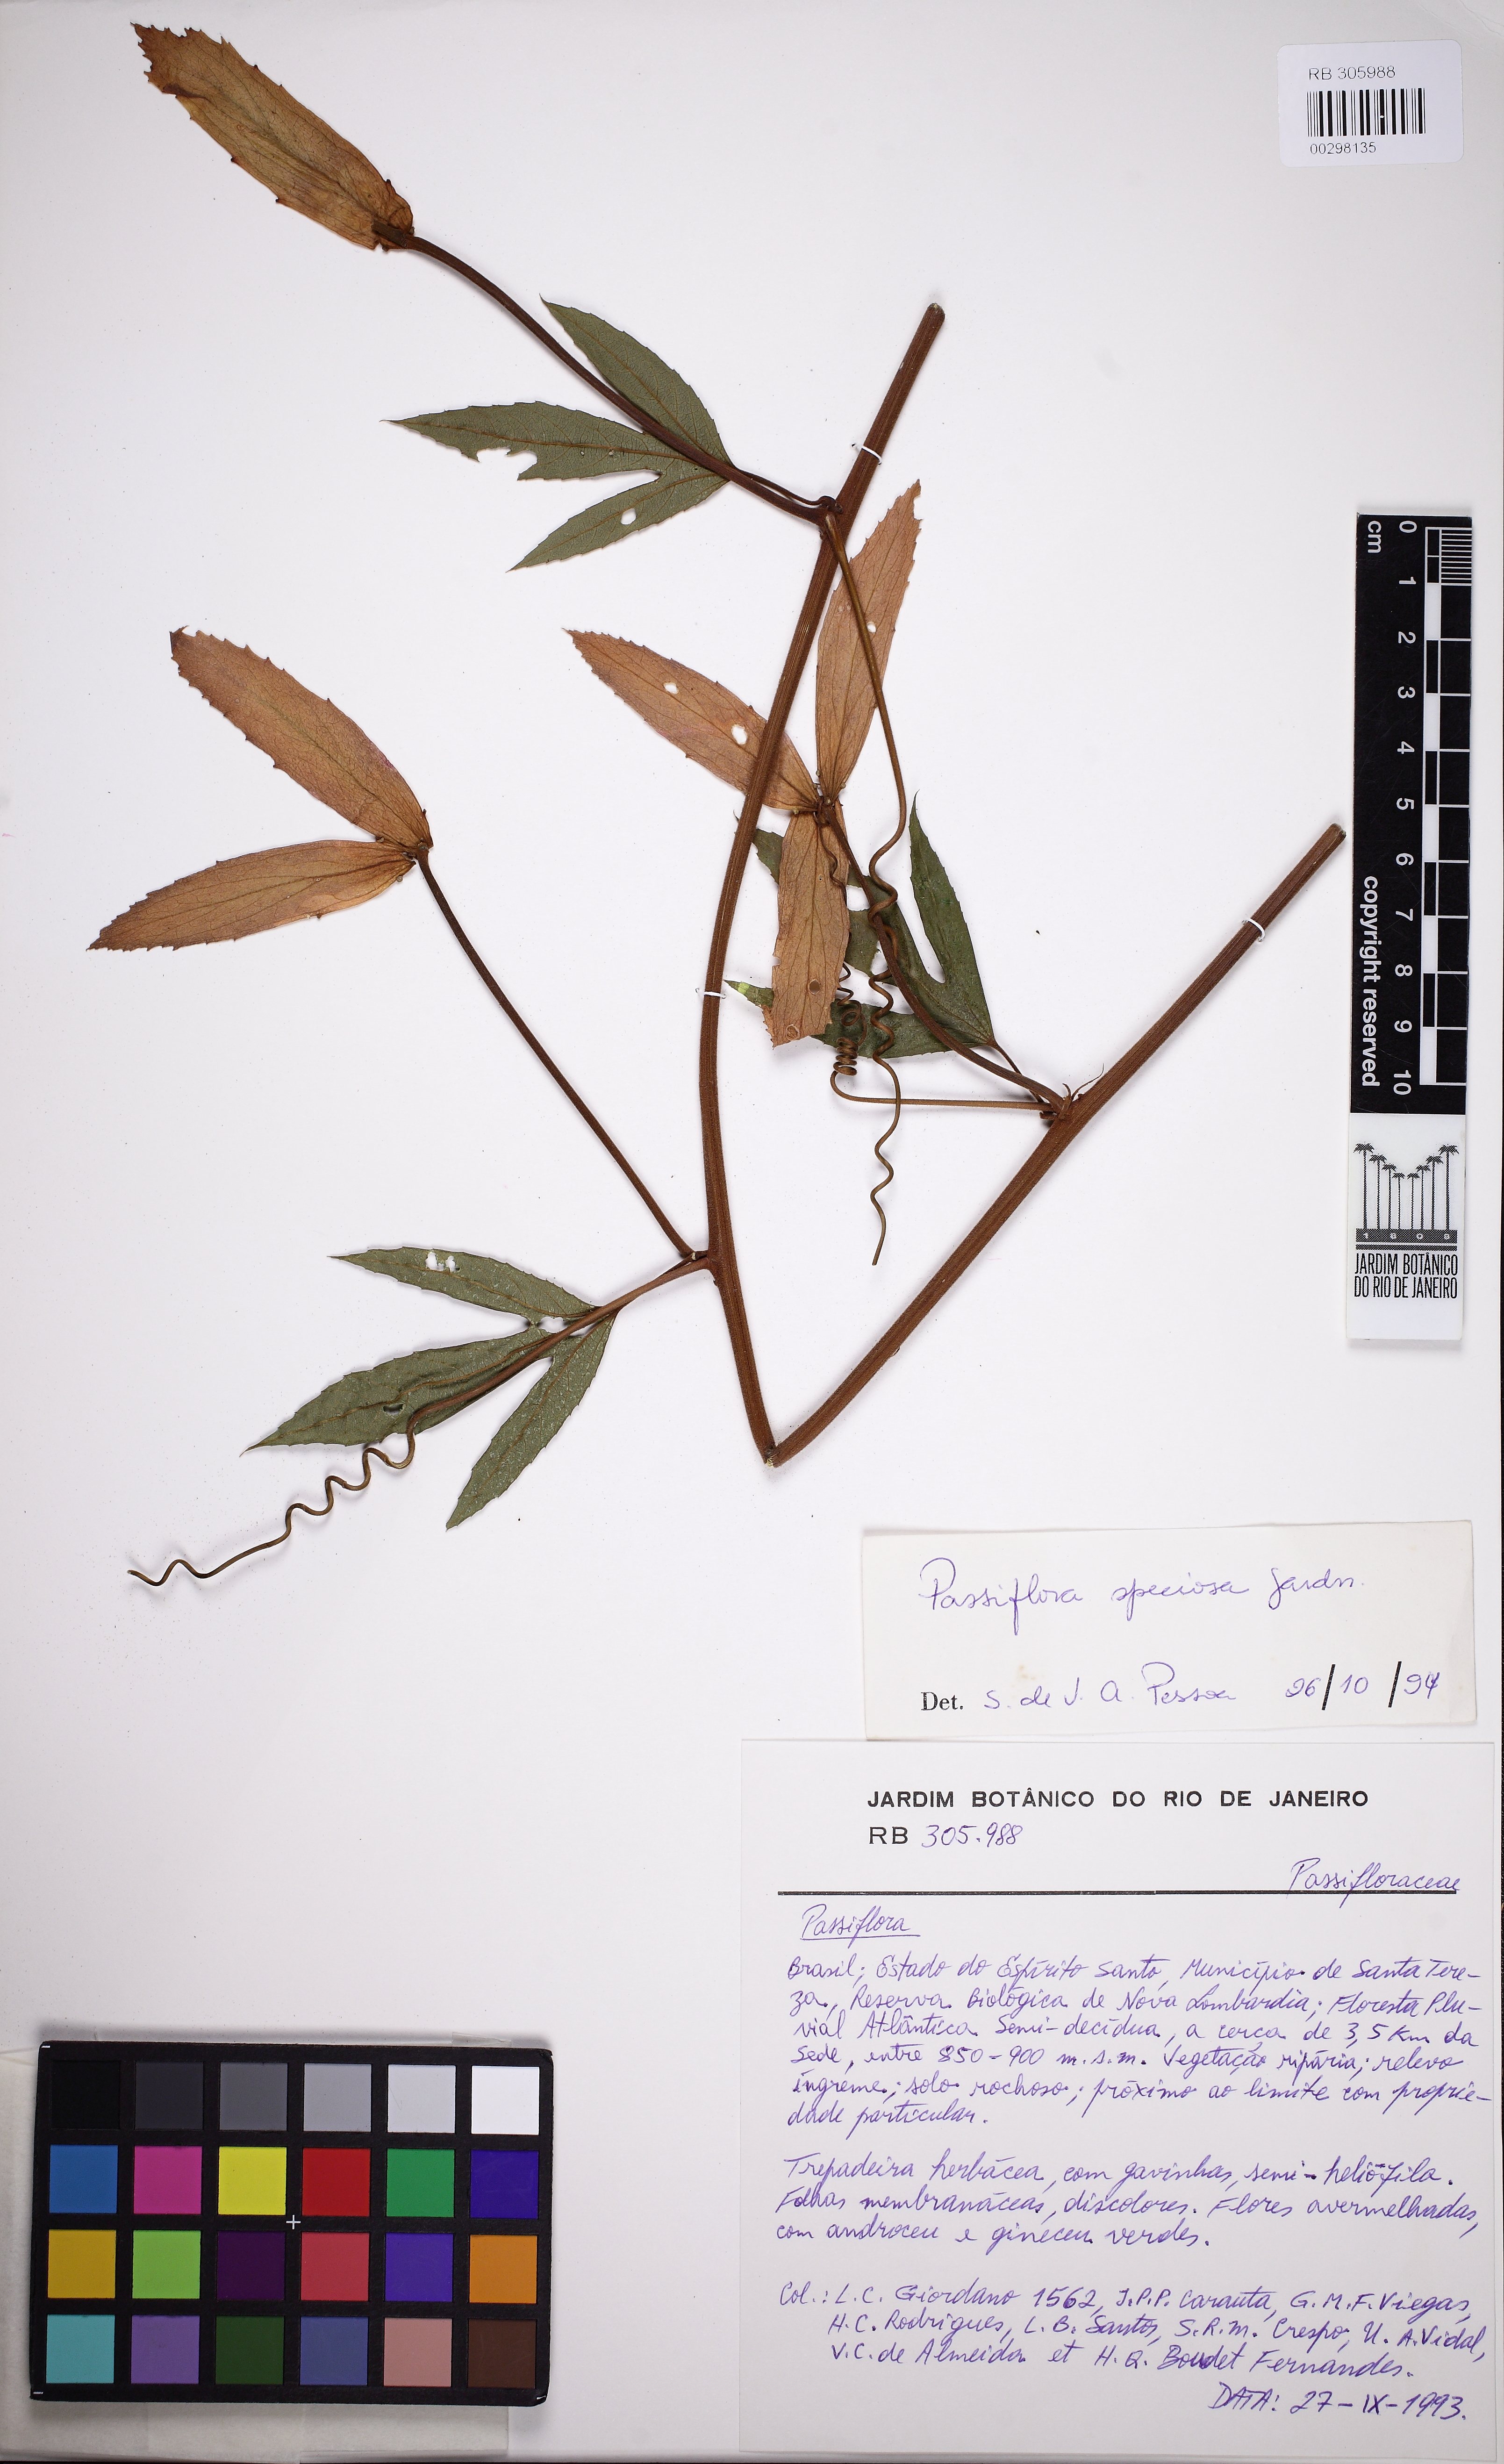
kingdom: Plantae
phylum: Tracheophyta
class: Magnoliopsida
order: Malpighiales
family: Passifloraceae
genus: Passiflora
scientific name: Passiflora speciosa
